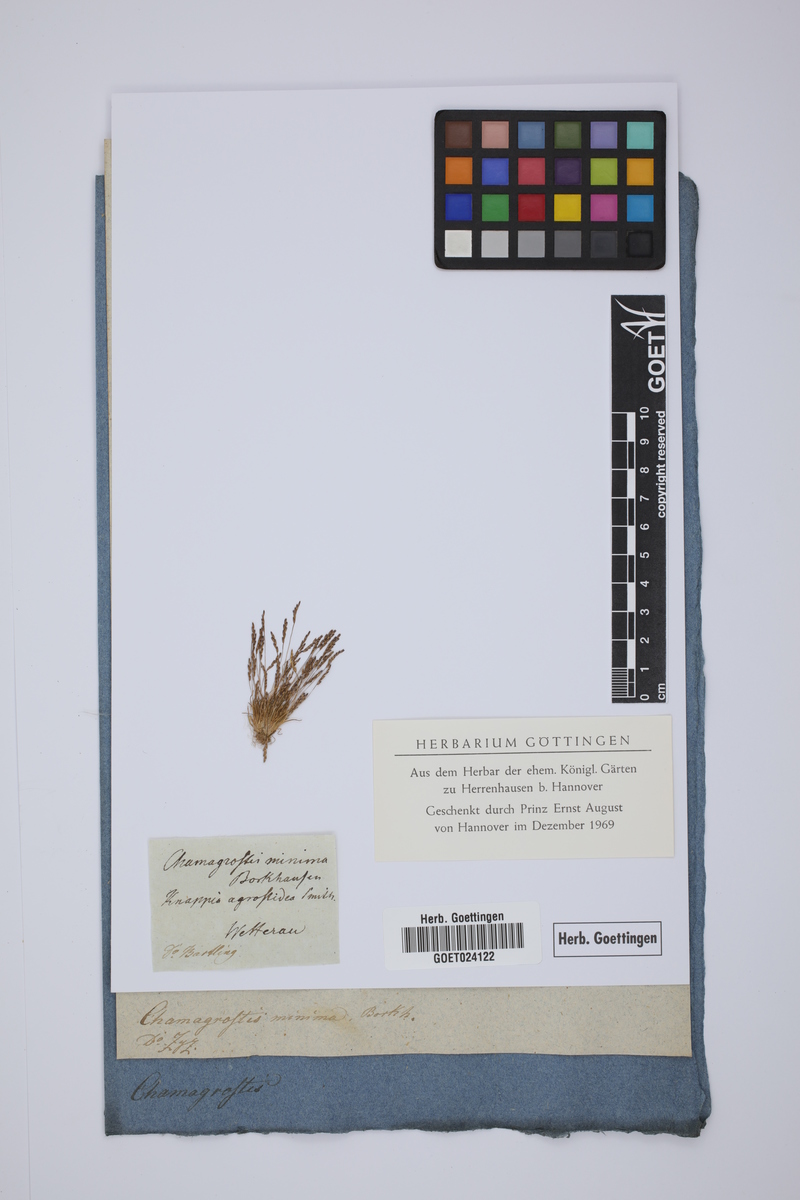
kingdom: Plantae
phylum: Tracheophyta
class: Liliopsida
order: Poales
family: Poaceae
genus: Mibora
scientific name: Mibora minima
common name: Early sand-grass
